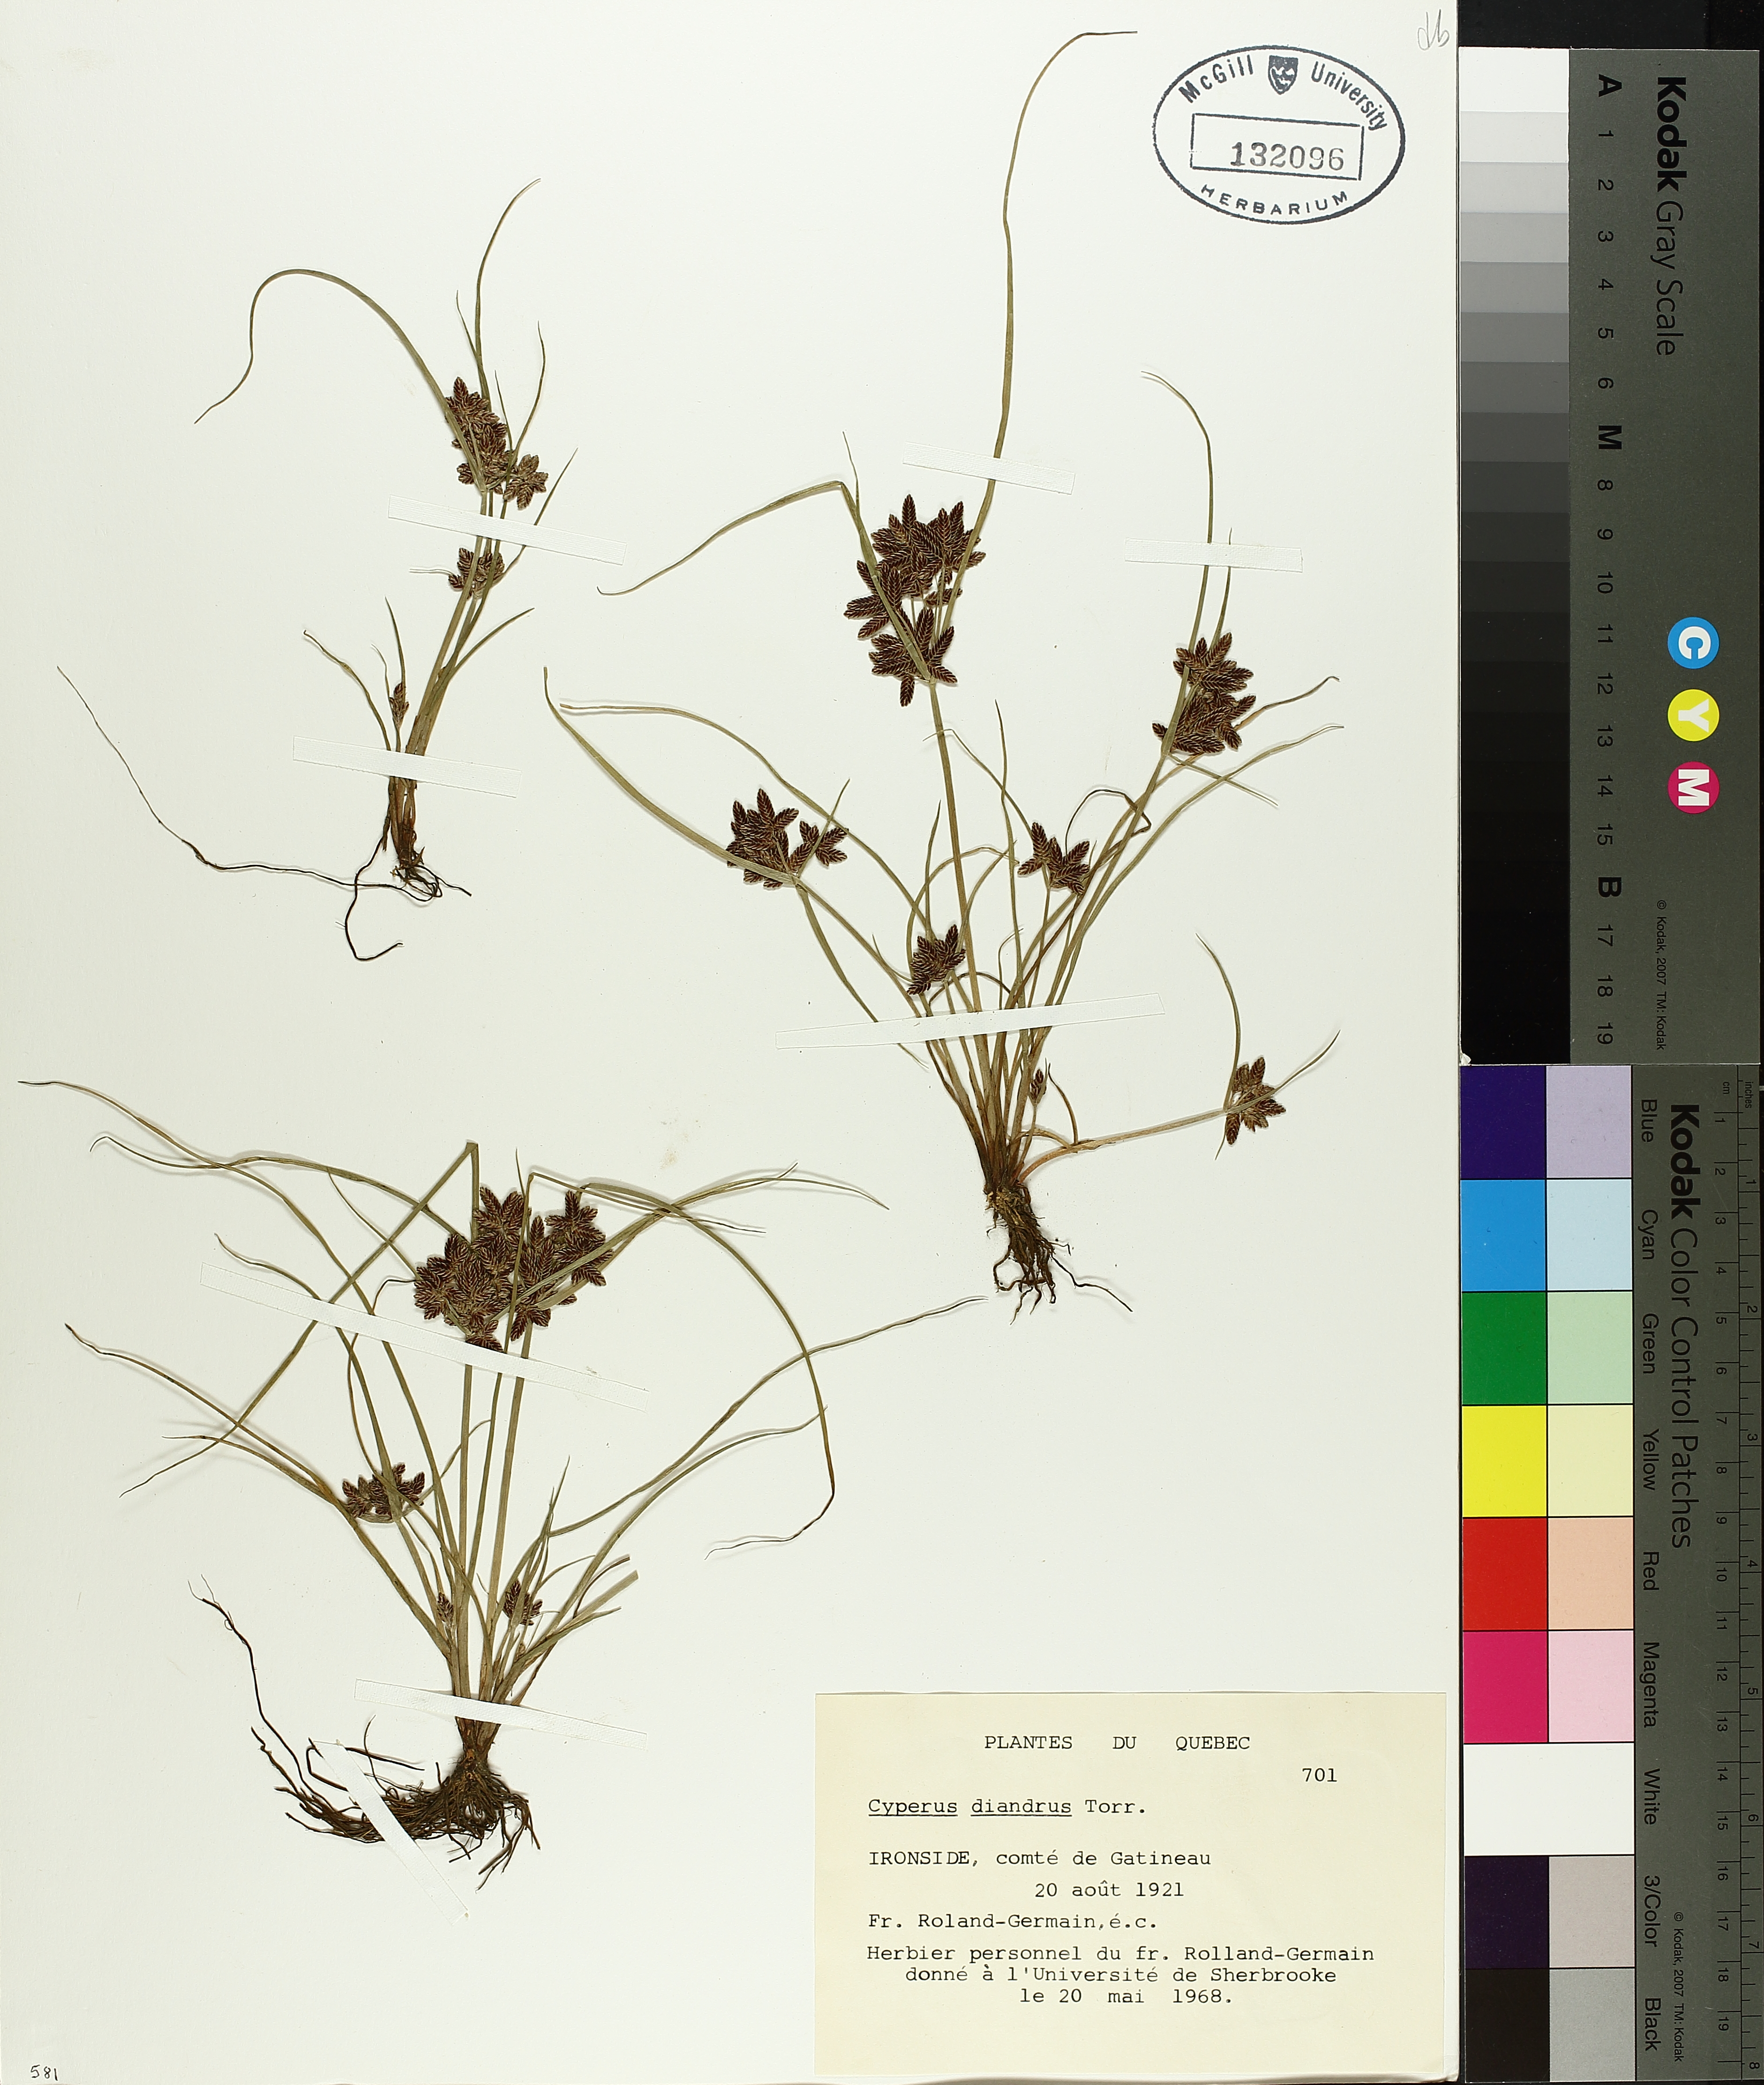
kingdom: Plantae
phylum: Tracheophyta
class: Liliopsida
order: Poales
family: Cyperaceae
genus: Cyperus
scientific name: Cyperus diandrus
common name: Low cyperus
